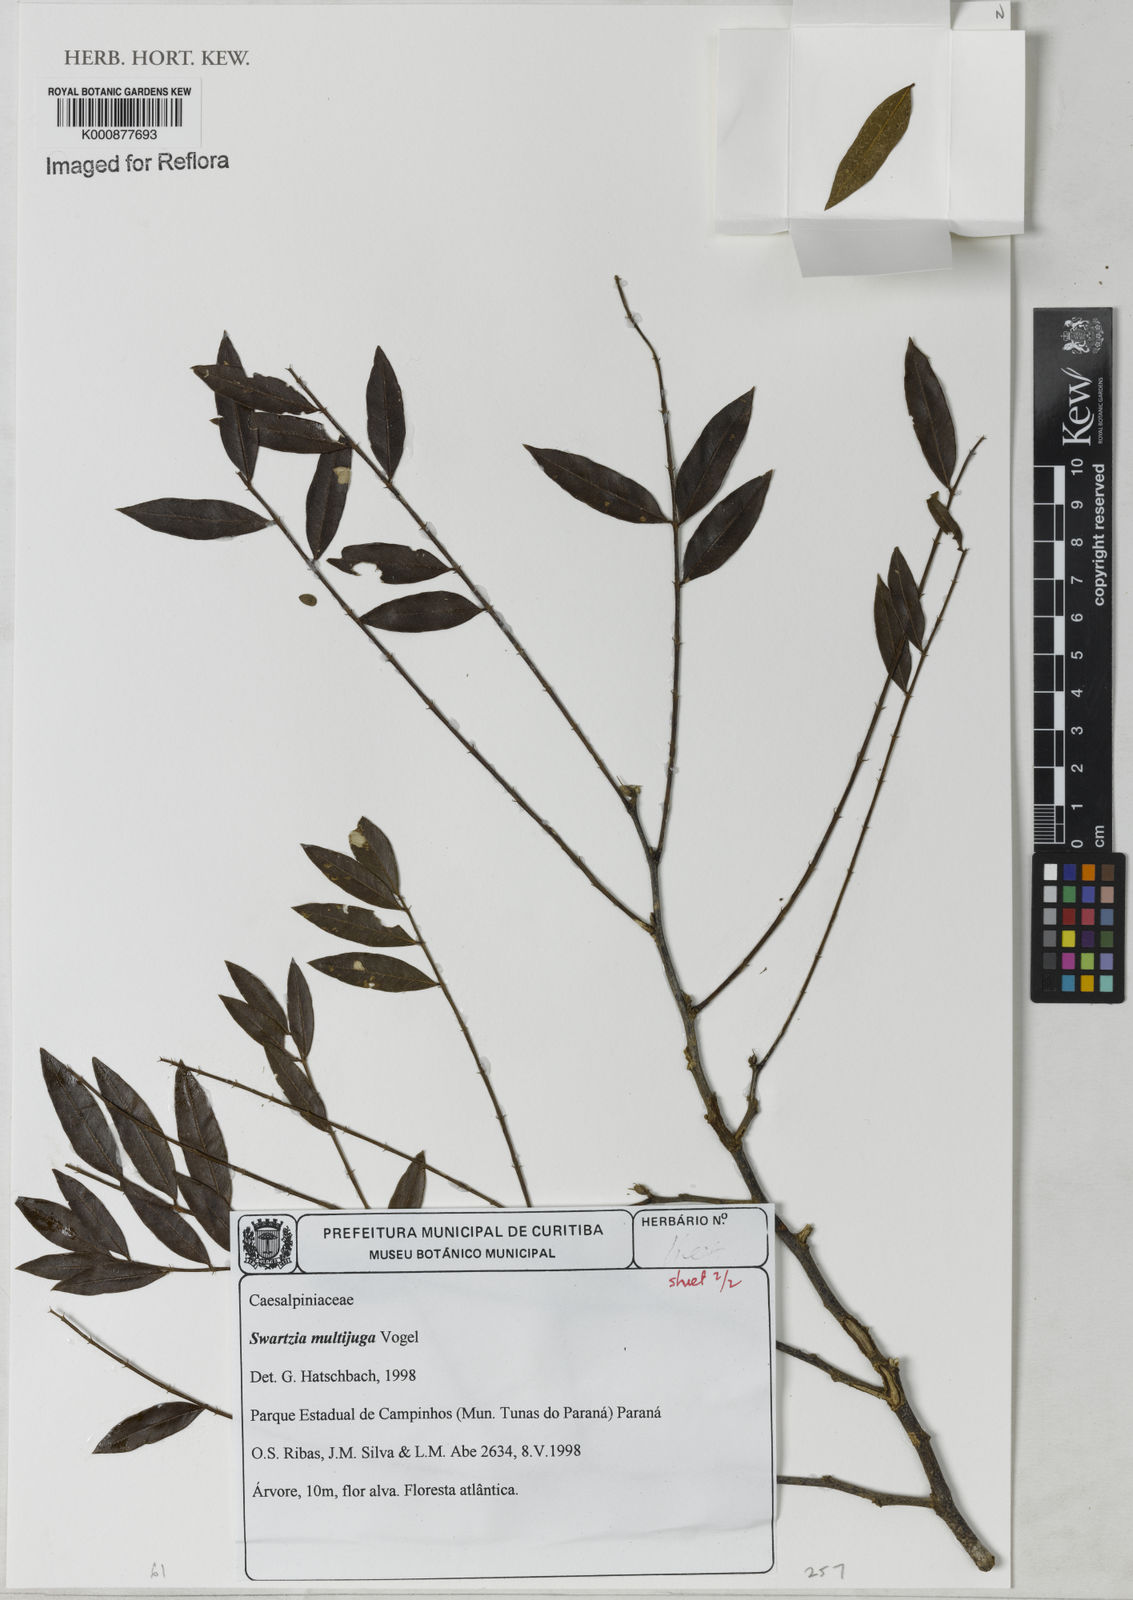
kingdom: Plantae
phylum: Tracheophyta
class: Magnoliopsida
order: Fabales
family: Fabaceae
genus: Swartzia
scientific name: Swartzia multijuga
